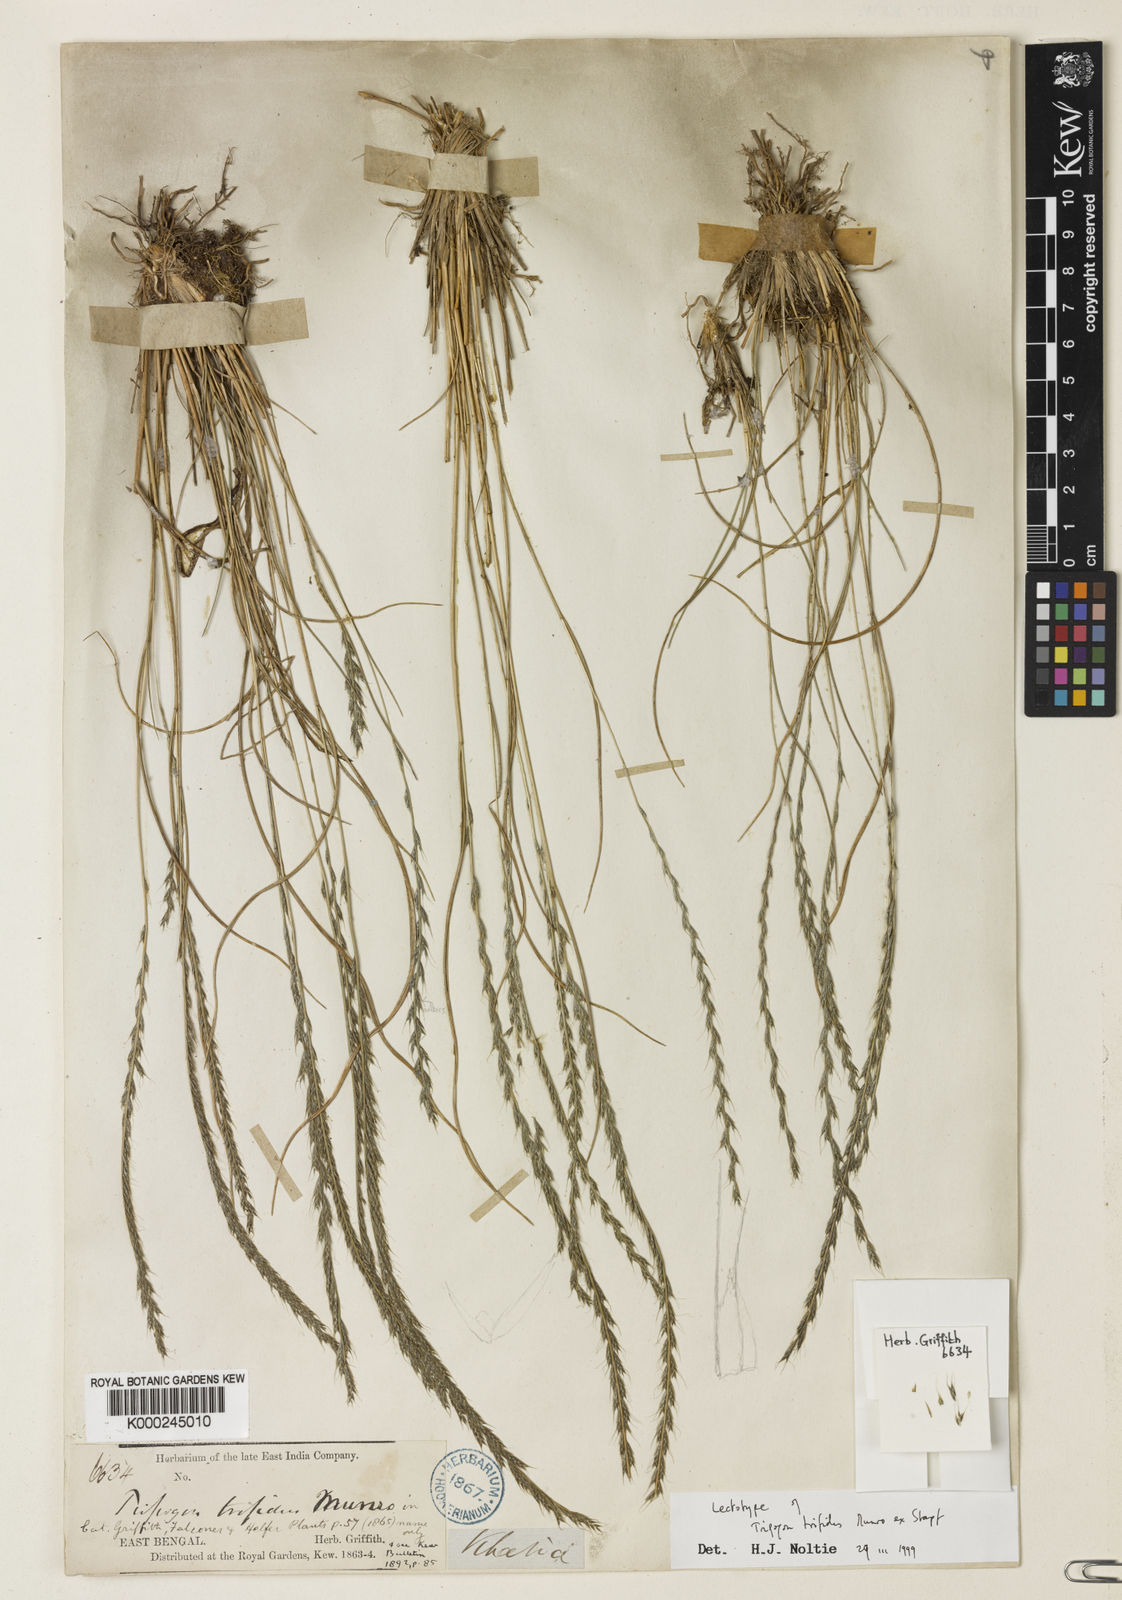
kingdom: Plantae
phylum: Tracheophyta
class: Liliopsida
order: Poales
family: Poaceae
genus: Tripogon
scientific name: Tripogon
